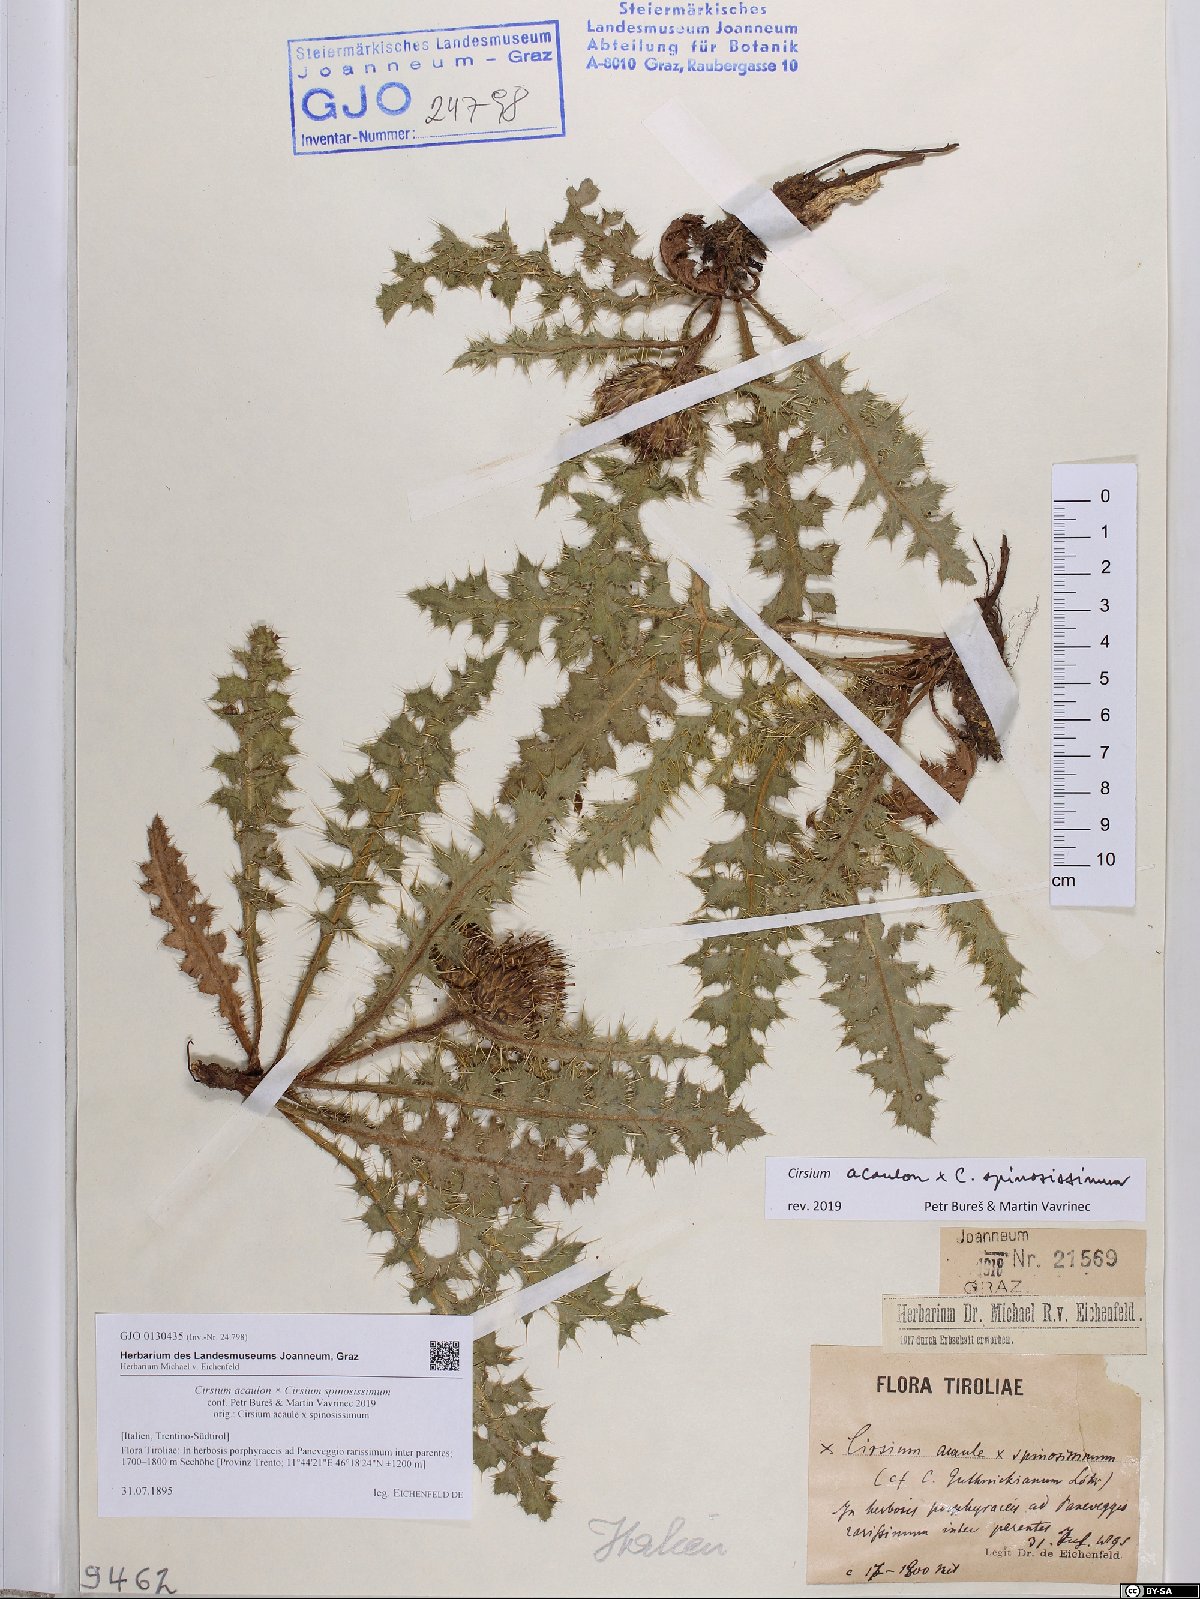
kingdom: Plantae
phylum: Tracheophyta
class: Magnoliopsida
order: Asterales
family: Asteraceae
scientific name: Asteraceae
